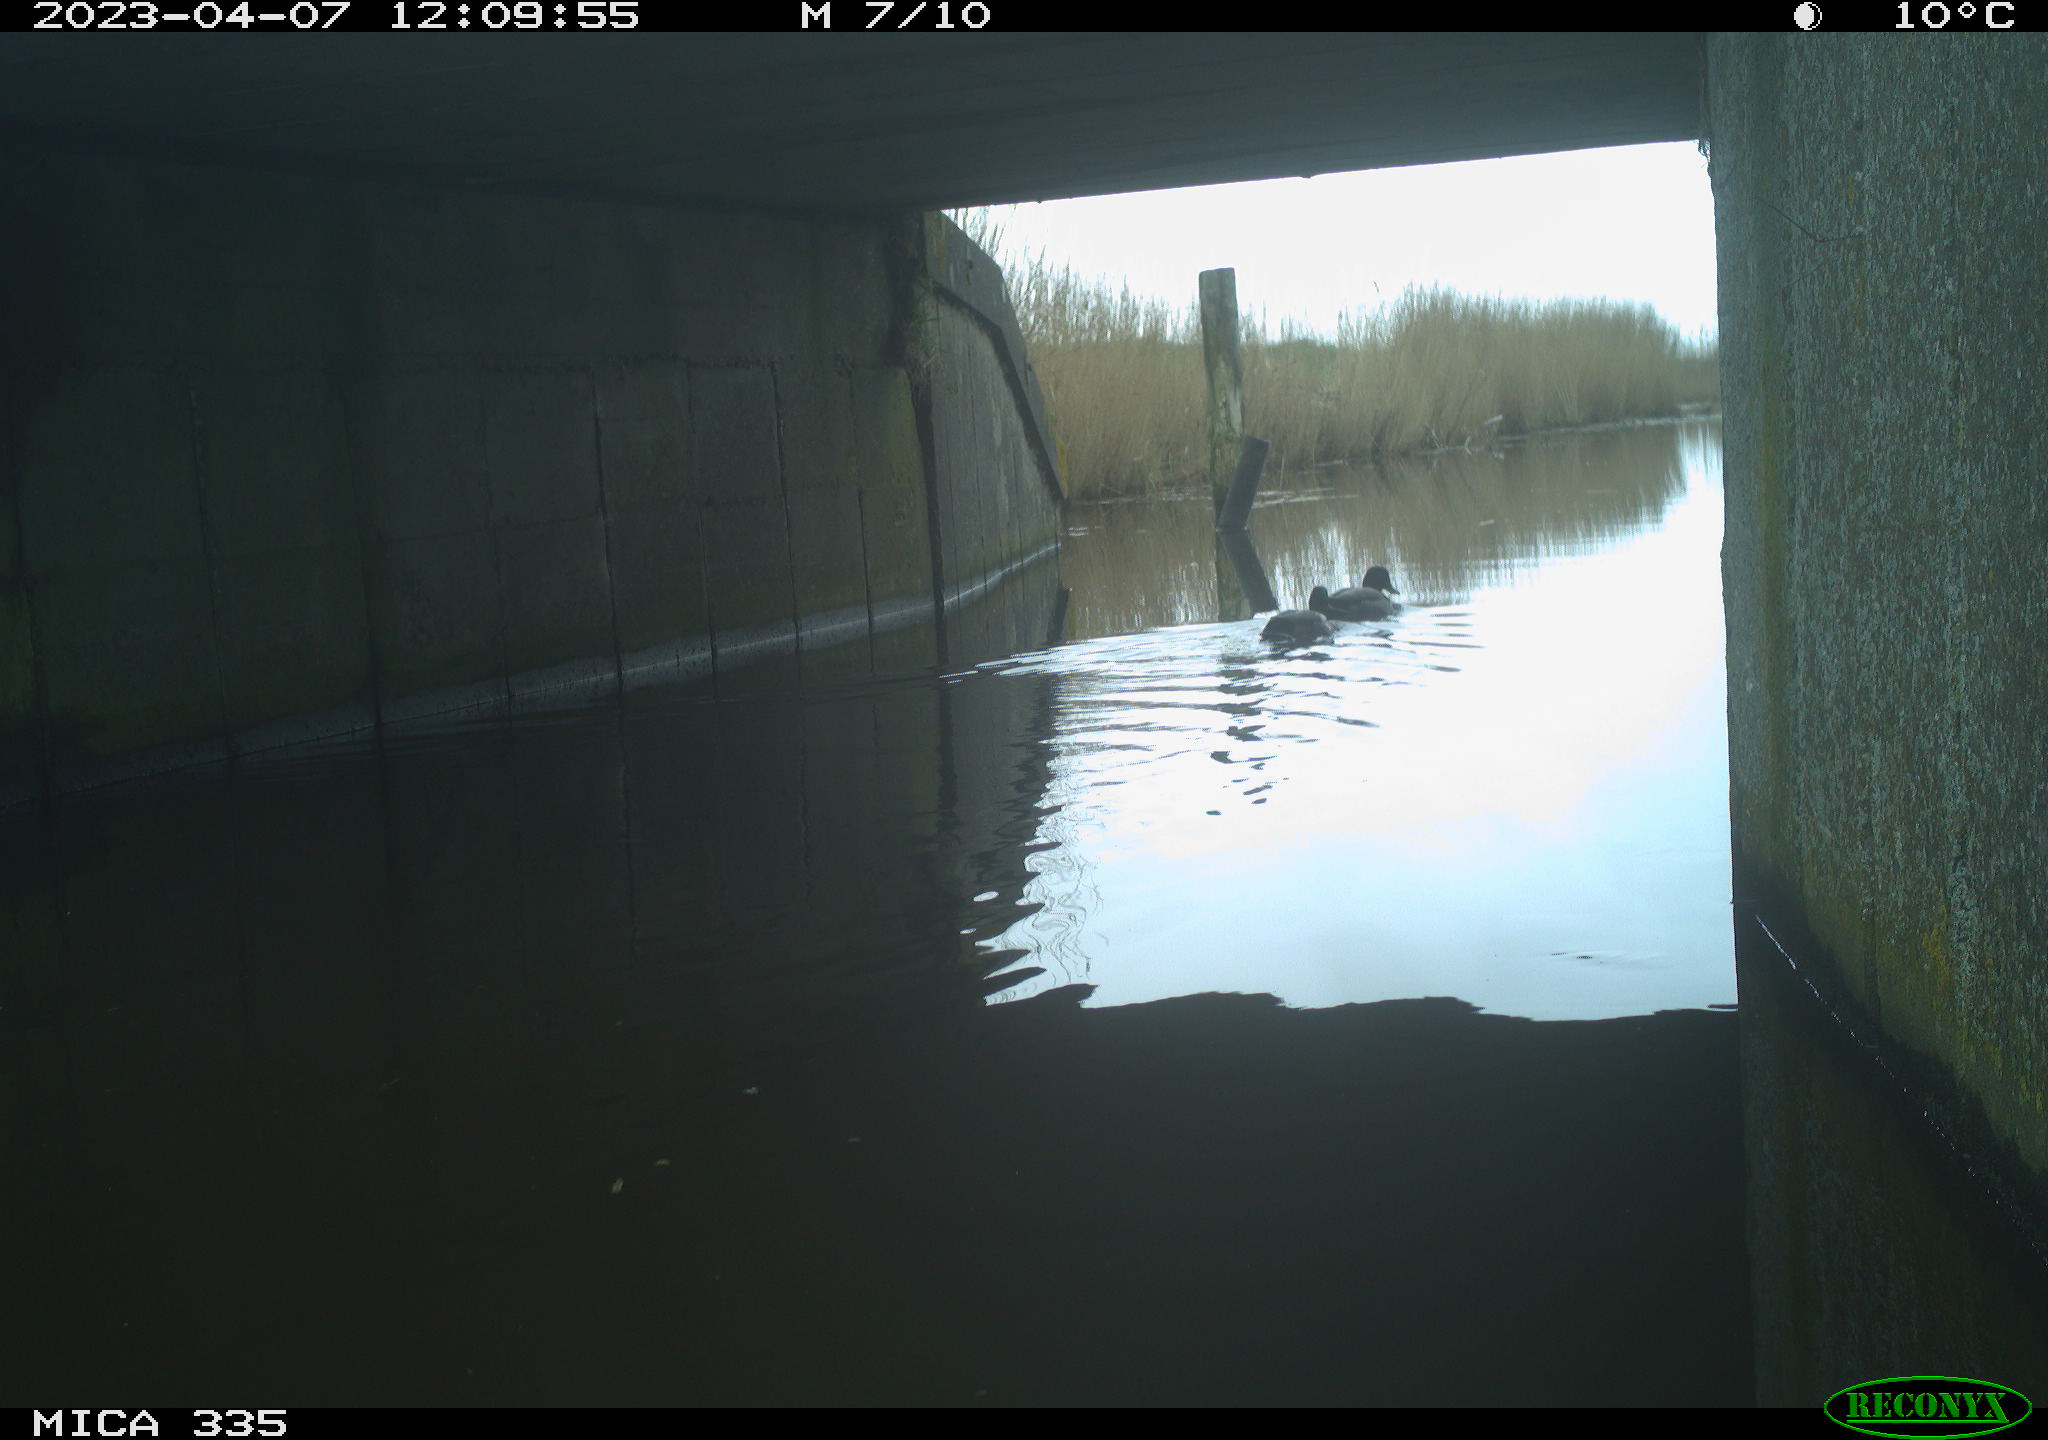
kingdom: Animalia
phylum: Chordata
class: Aves
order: Anseriformes
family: Anatidae
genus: Anas
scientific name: Anas
